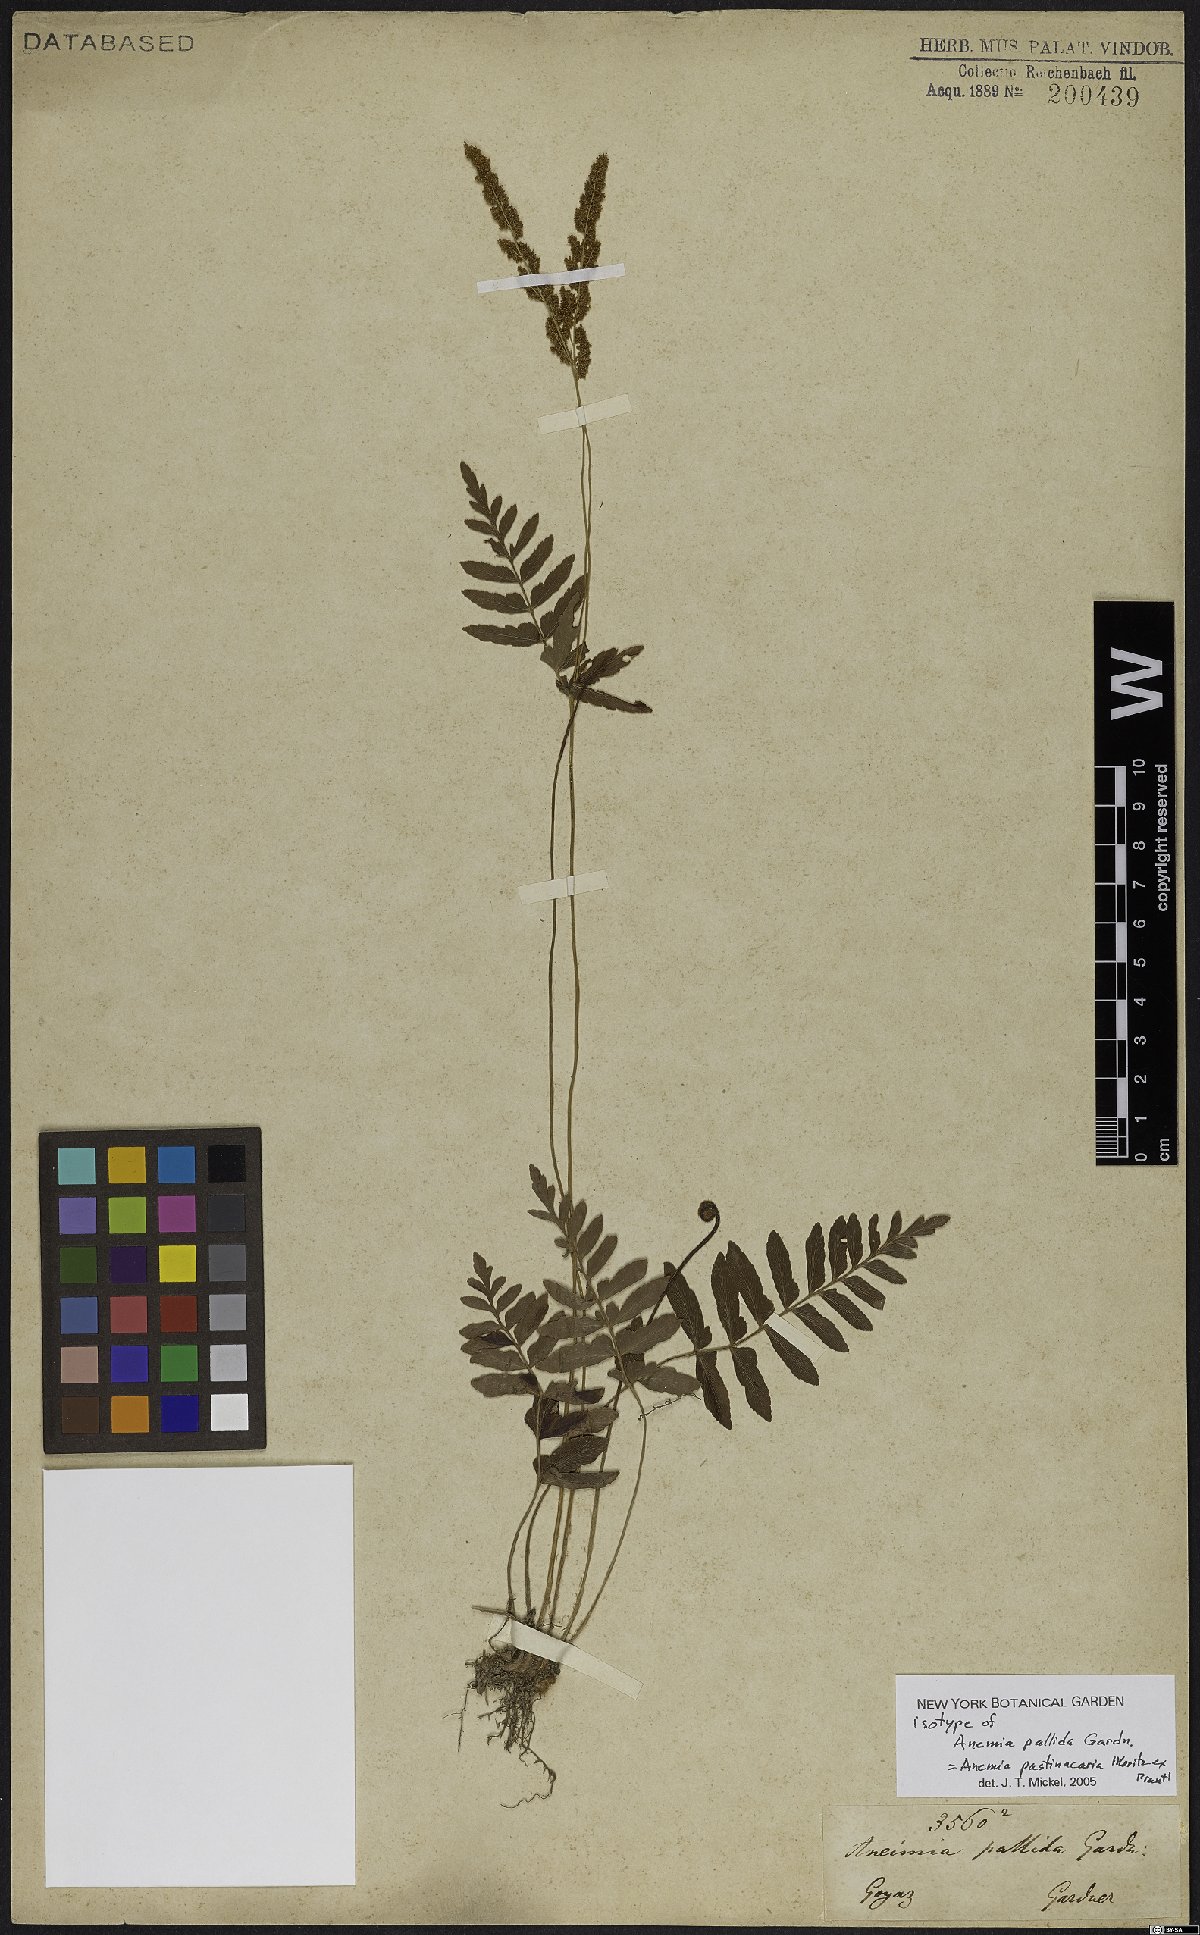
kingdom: Plantae
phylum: Tracheophyta
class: Polypodiopsida
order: Schizaeales
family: Anemiaceae
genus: Anemia
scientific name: Anemia hispida
